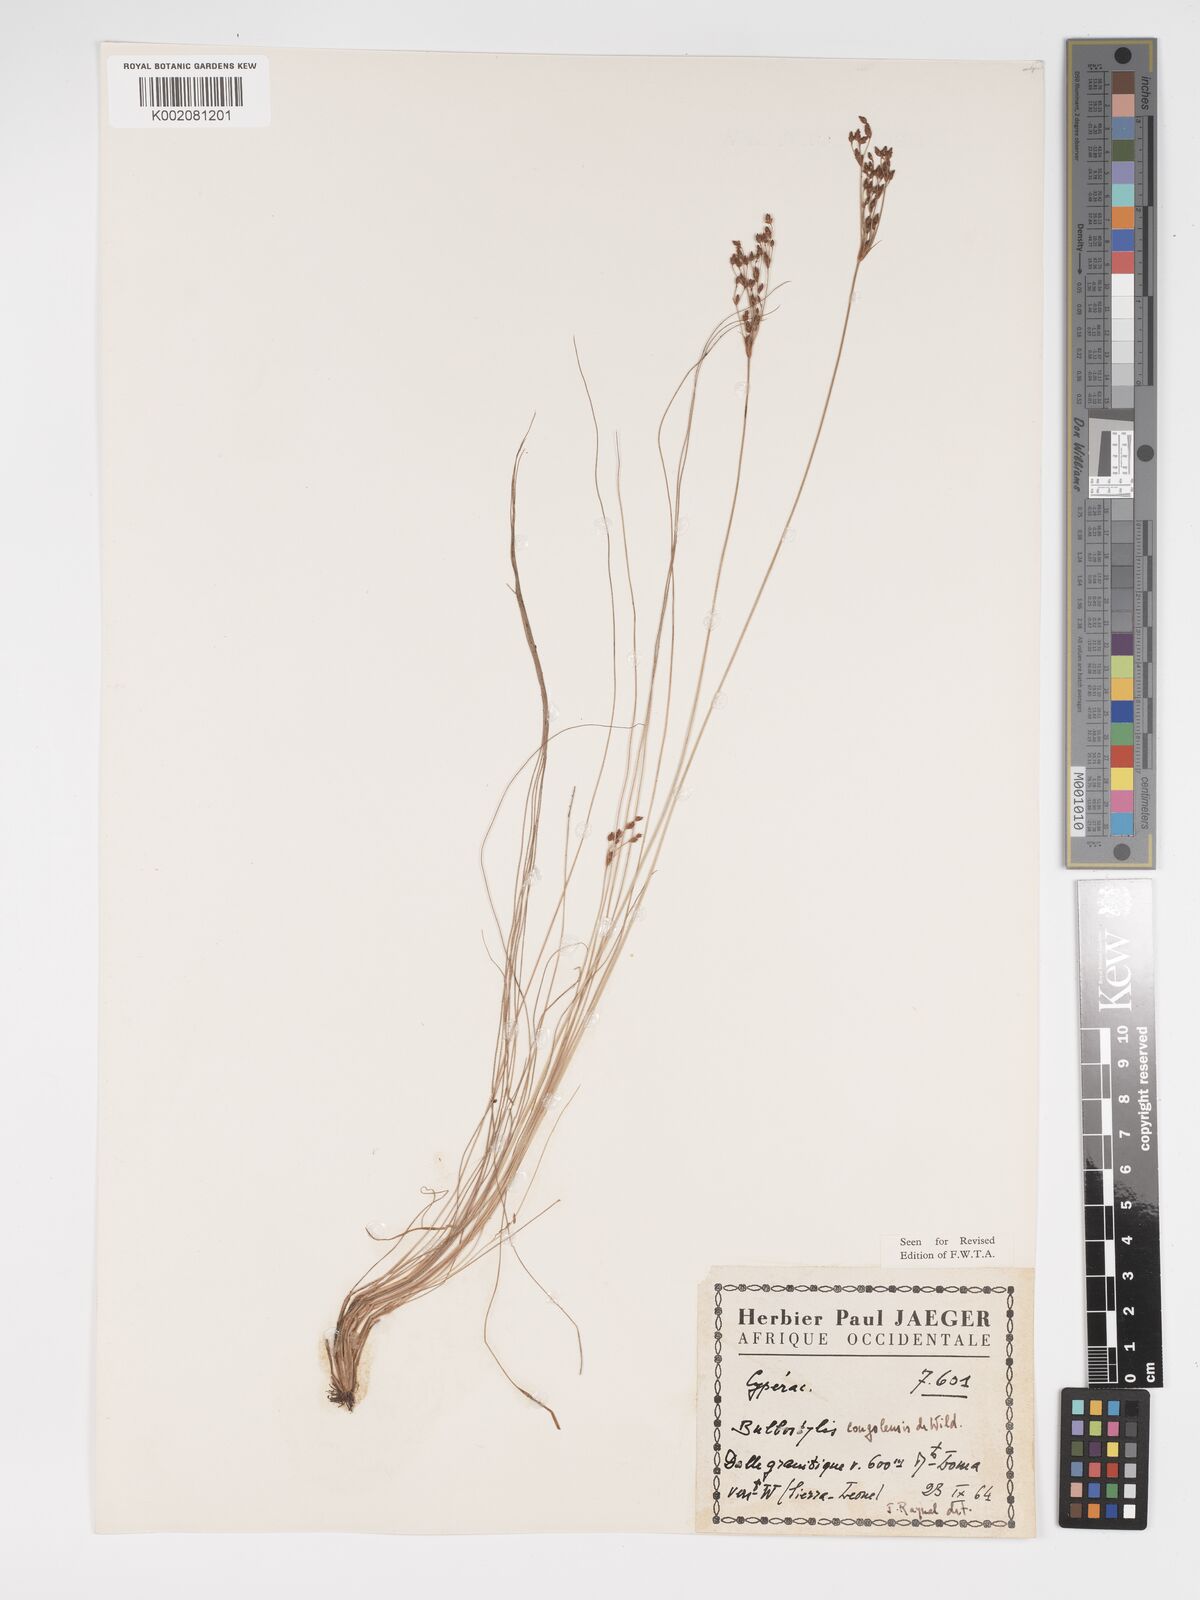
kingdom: Plantae
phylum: Tracheophyta
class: Liliopsida
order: Poales
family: Cyperaceae
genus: Bulbostylis
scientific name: Bulbostylis congolensis
